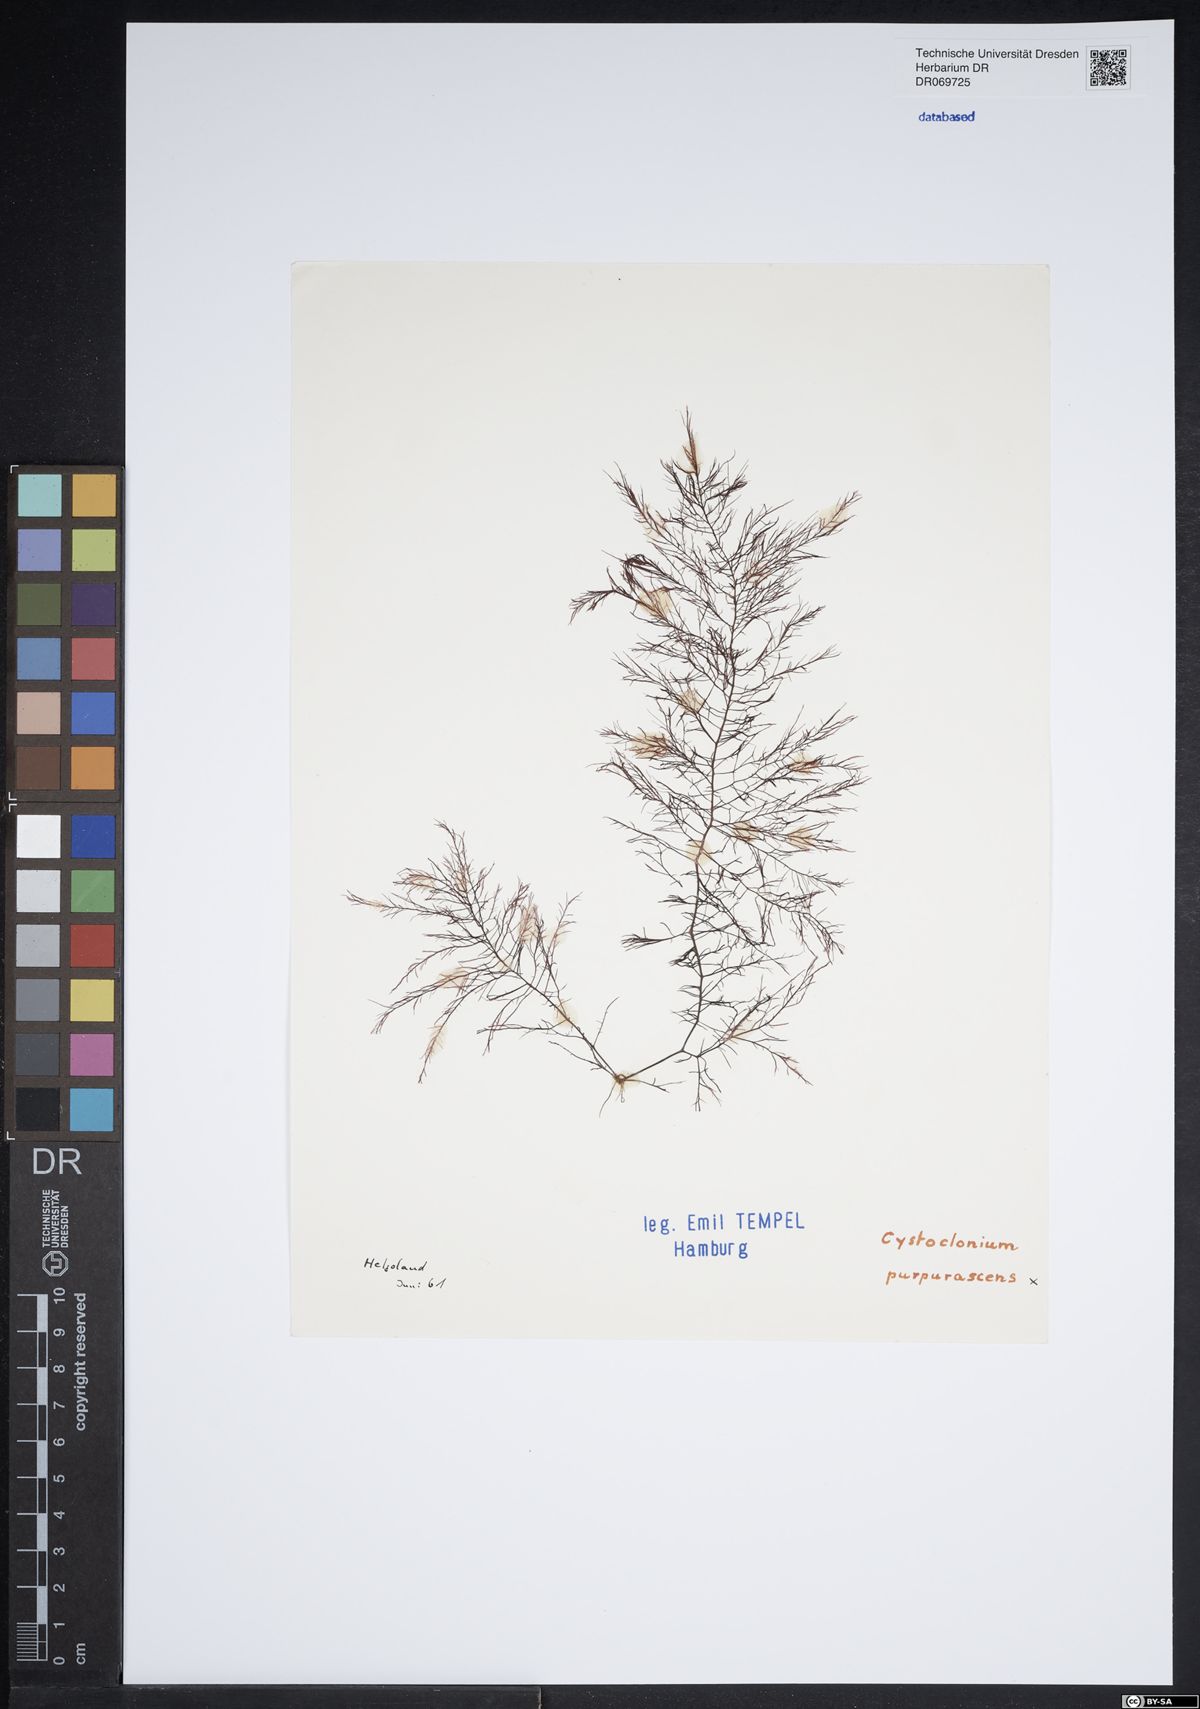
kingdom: Plantae
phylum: Rhodophyta
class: Florideophyceae
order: Gigartinales
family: Cystocloniaceae
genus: Cystoclonium
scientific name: Cystoclonium purpureum
